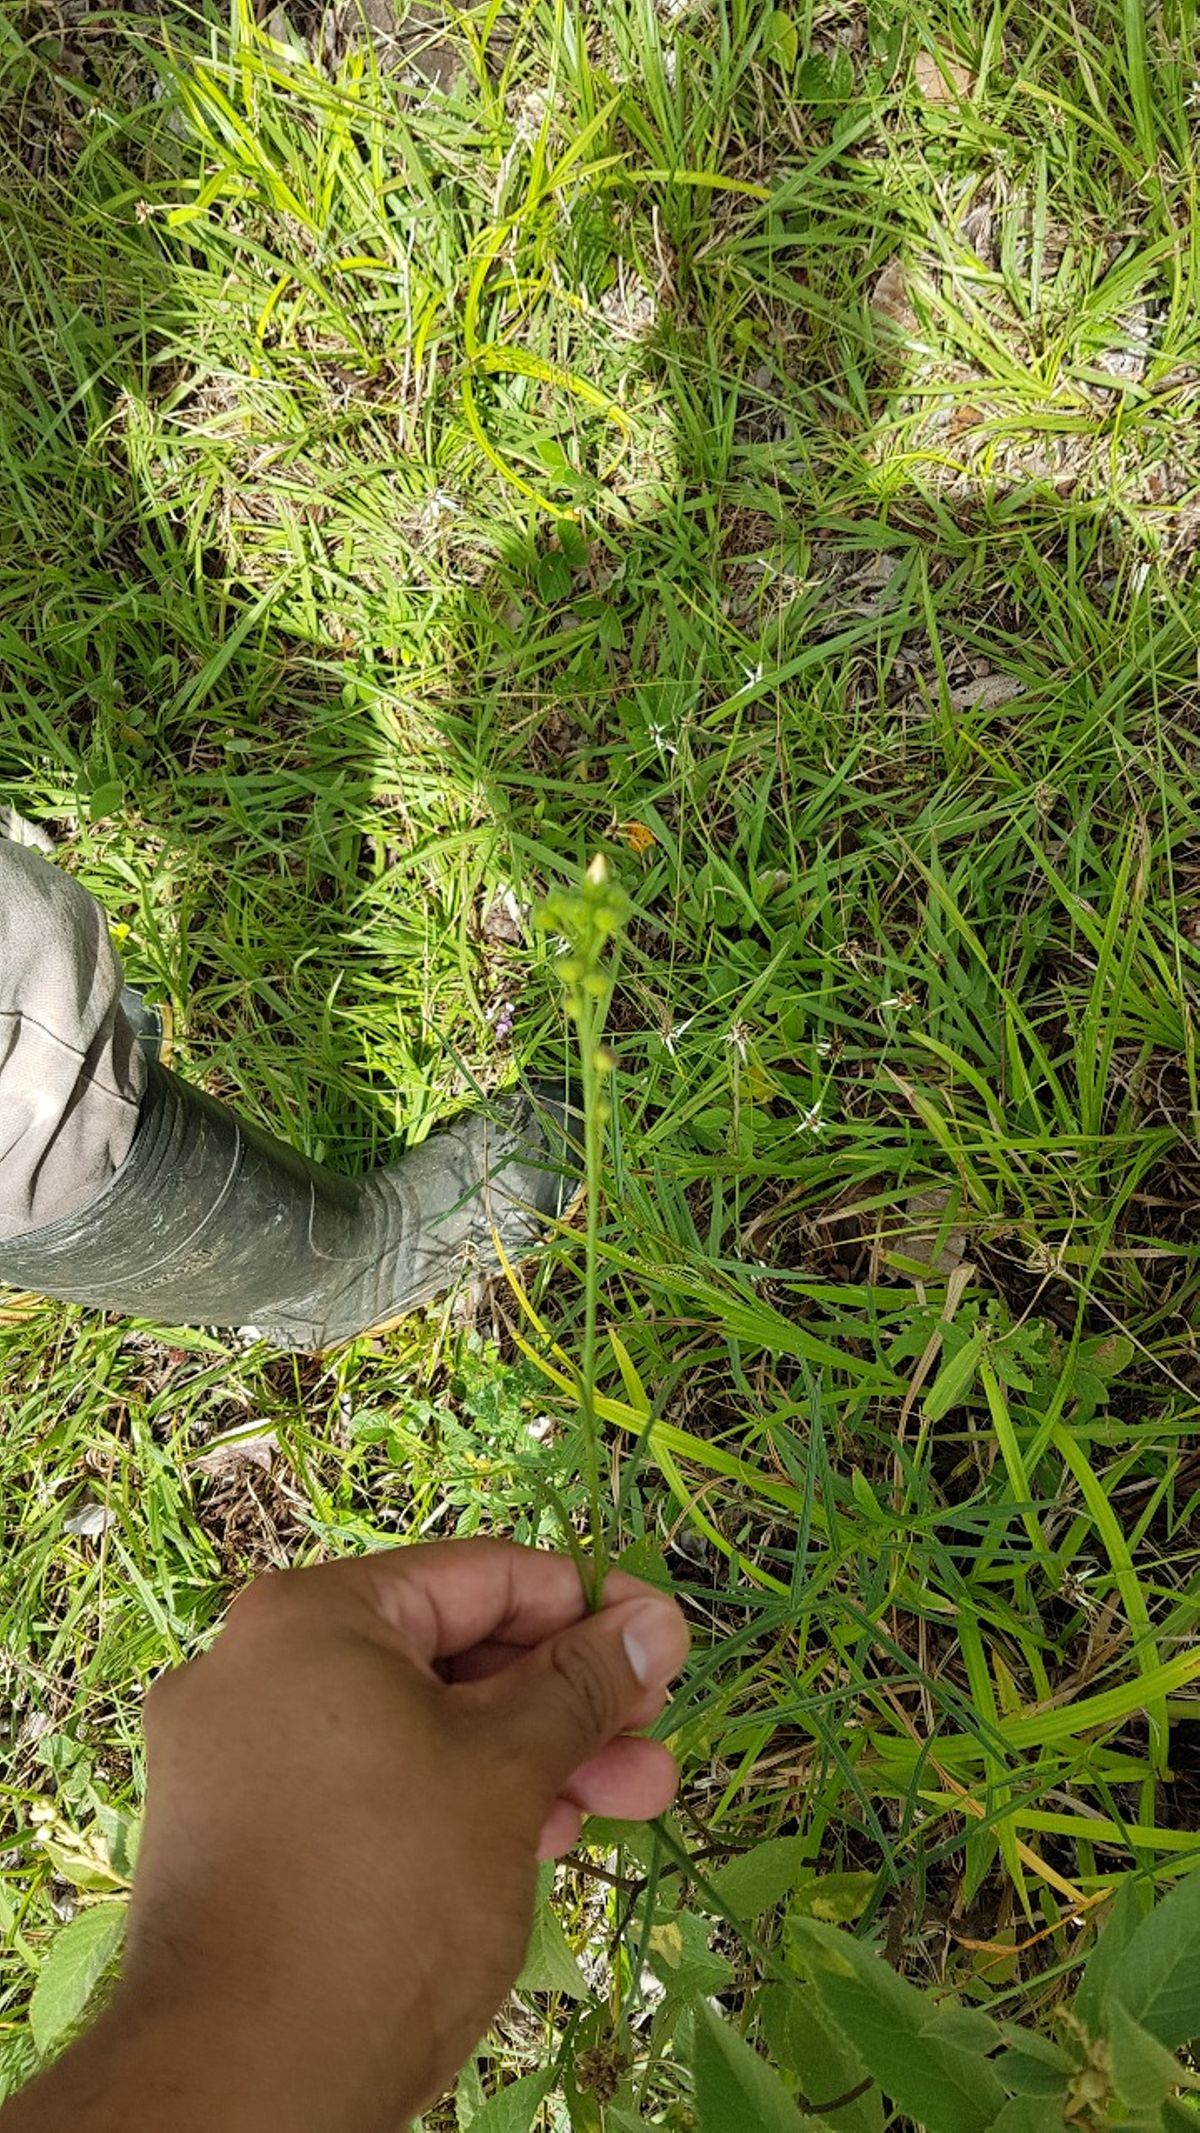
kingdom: Plantae
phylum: Tracheophyta
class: Magnoliopsida
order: Malvales
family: Malvaceae
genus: Sida
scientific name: Sida linifolia
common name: Flaxleaf fanpetals
